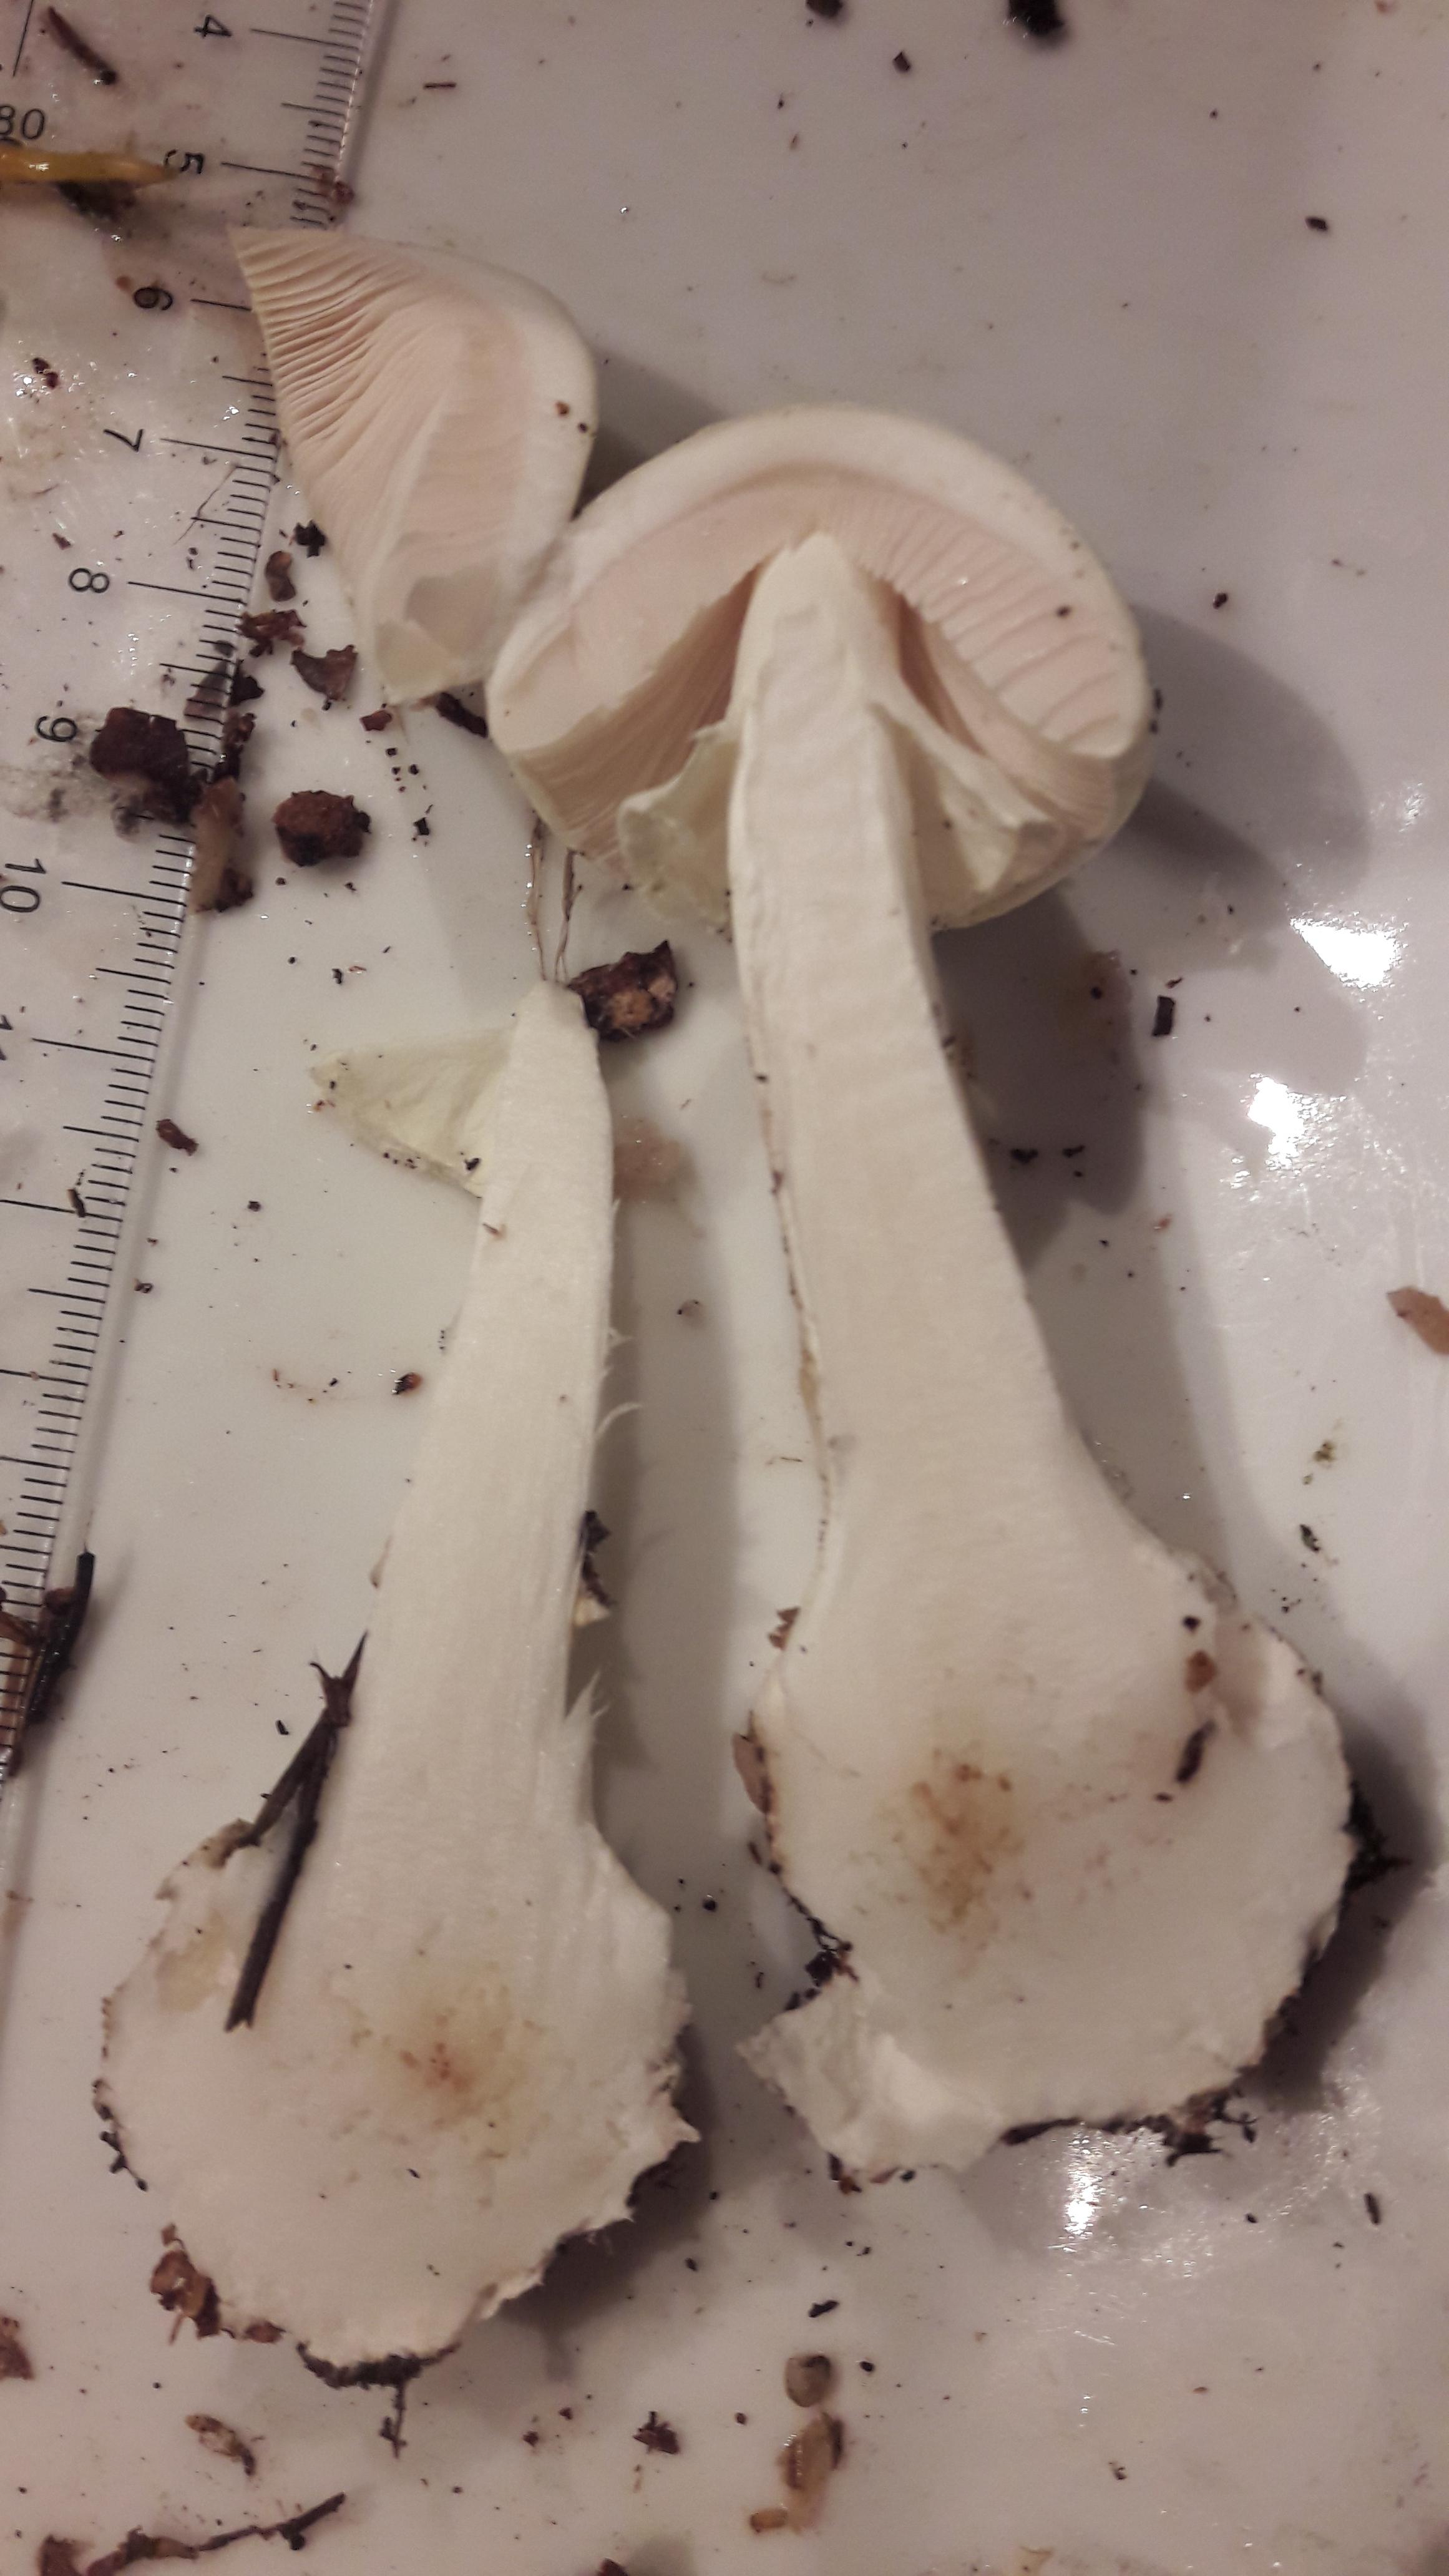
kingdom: Fungi
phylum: Basidiomycota
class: Agaricomycetes
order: Agaricales
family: Amanitaceae
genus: Amanita
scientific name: Amanita citrina
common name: kugleknoldet fluesvamp
